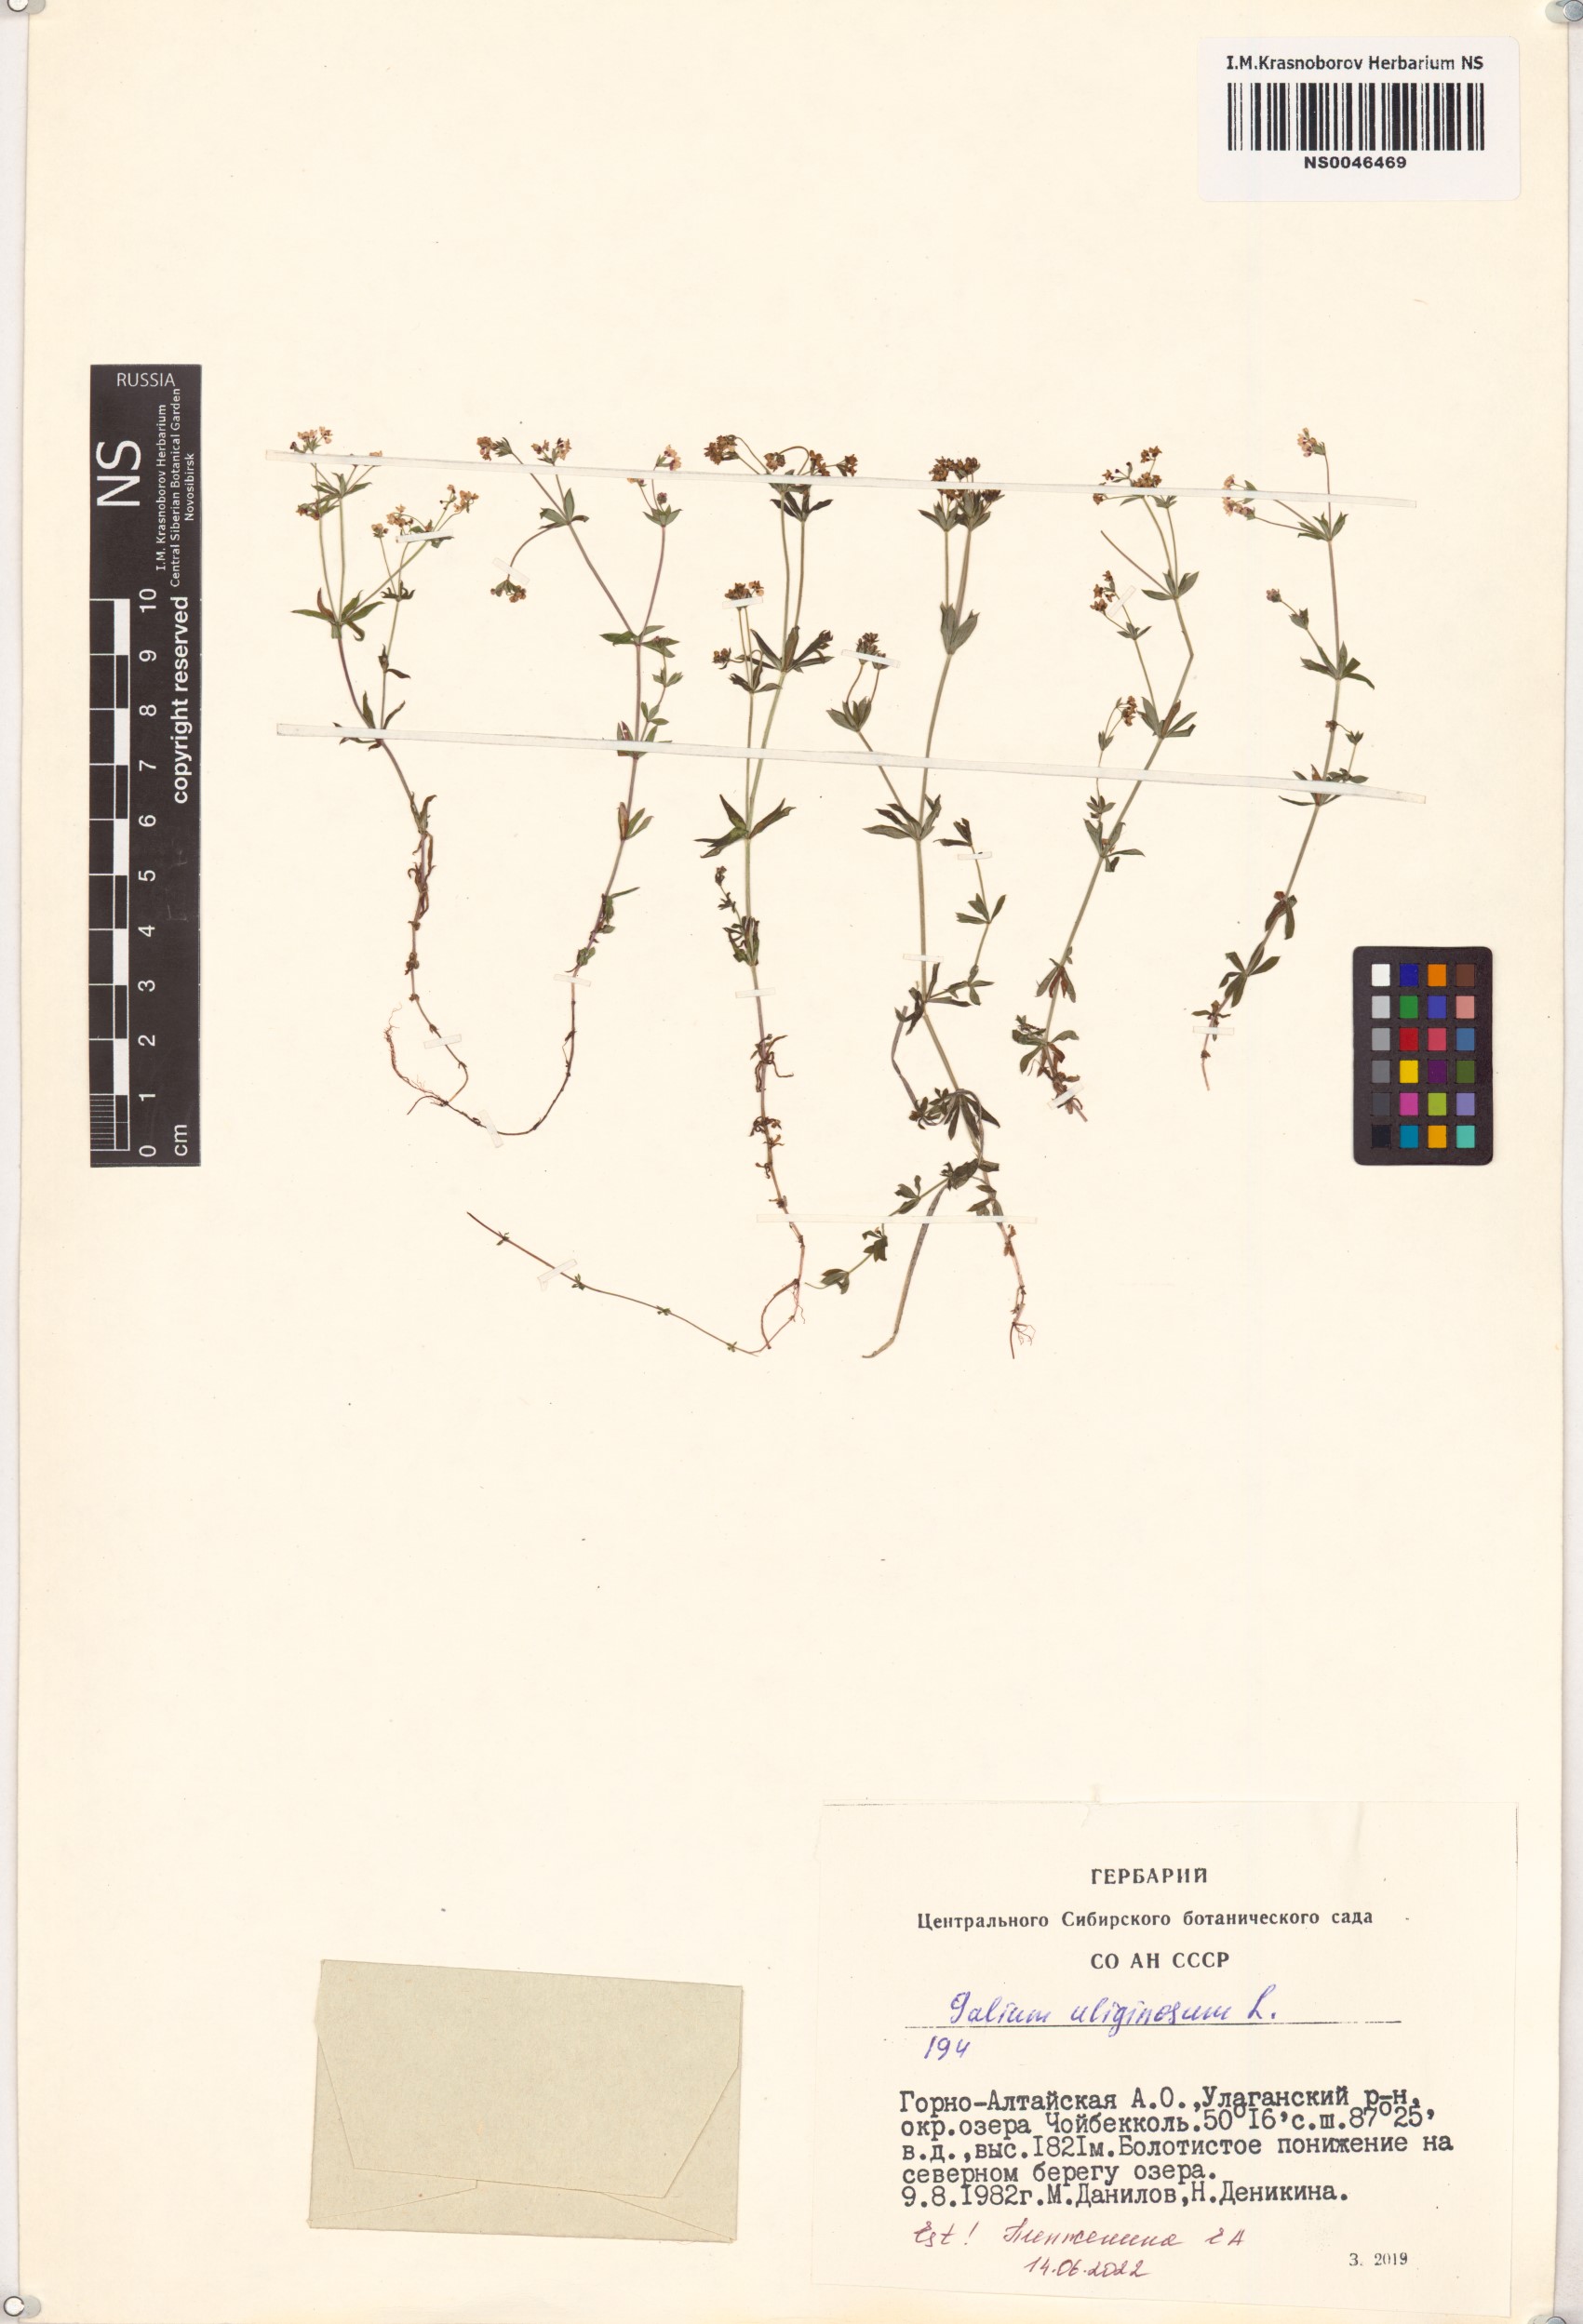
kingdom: Plantae
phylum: Tracheophyta
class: Magnoliopsida
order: Gentianales
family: Rubiaceae
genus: Galium
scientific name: Galium uliginosum
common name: Fen bedstraw
